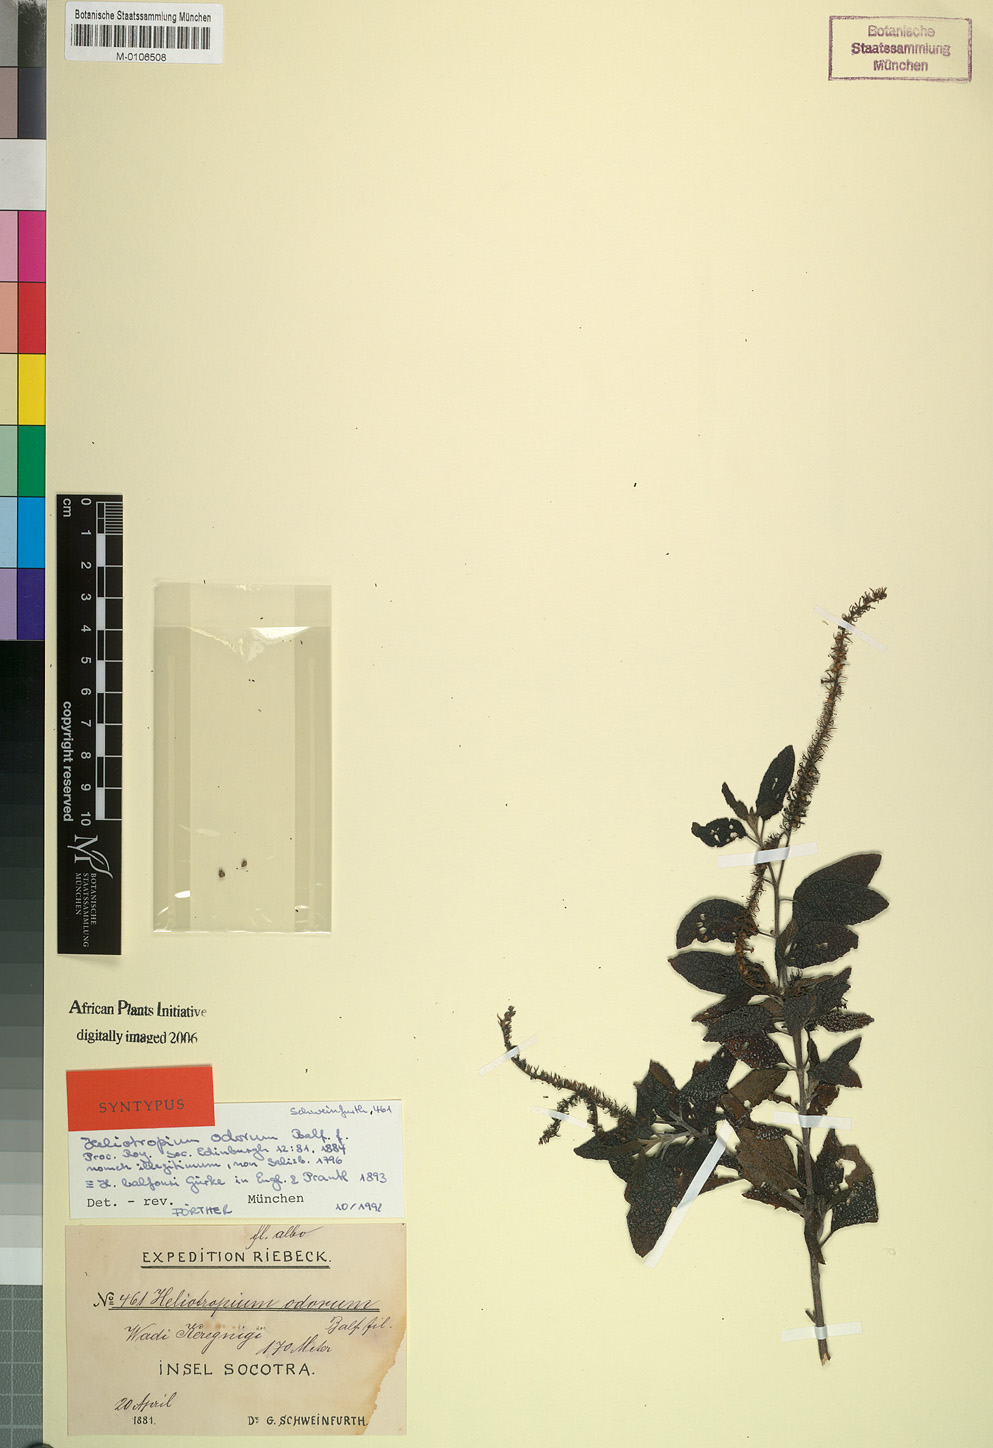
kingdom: Plantae
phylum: Tracheophyta
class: Magnoliopsida
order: Boraginales
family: Heliotropiaceae
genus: Heliotropium
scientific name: Heliotropium balfourii
